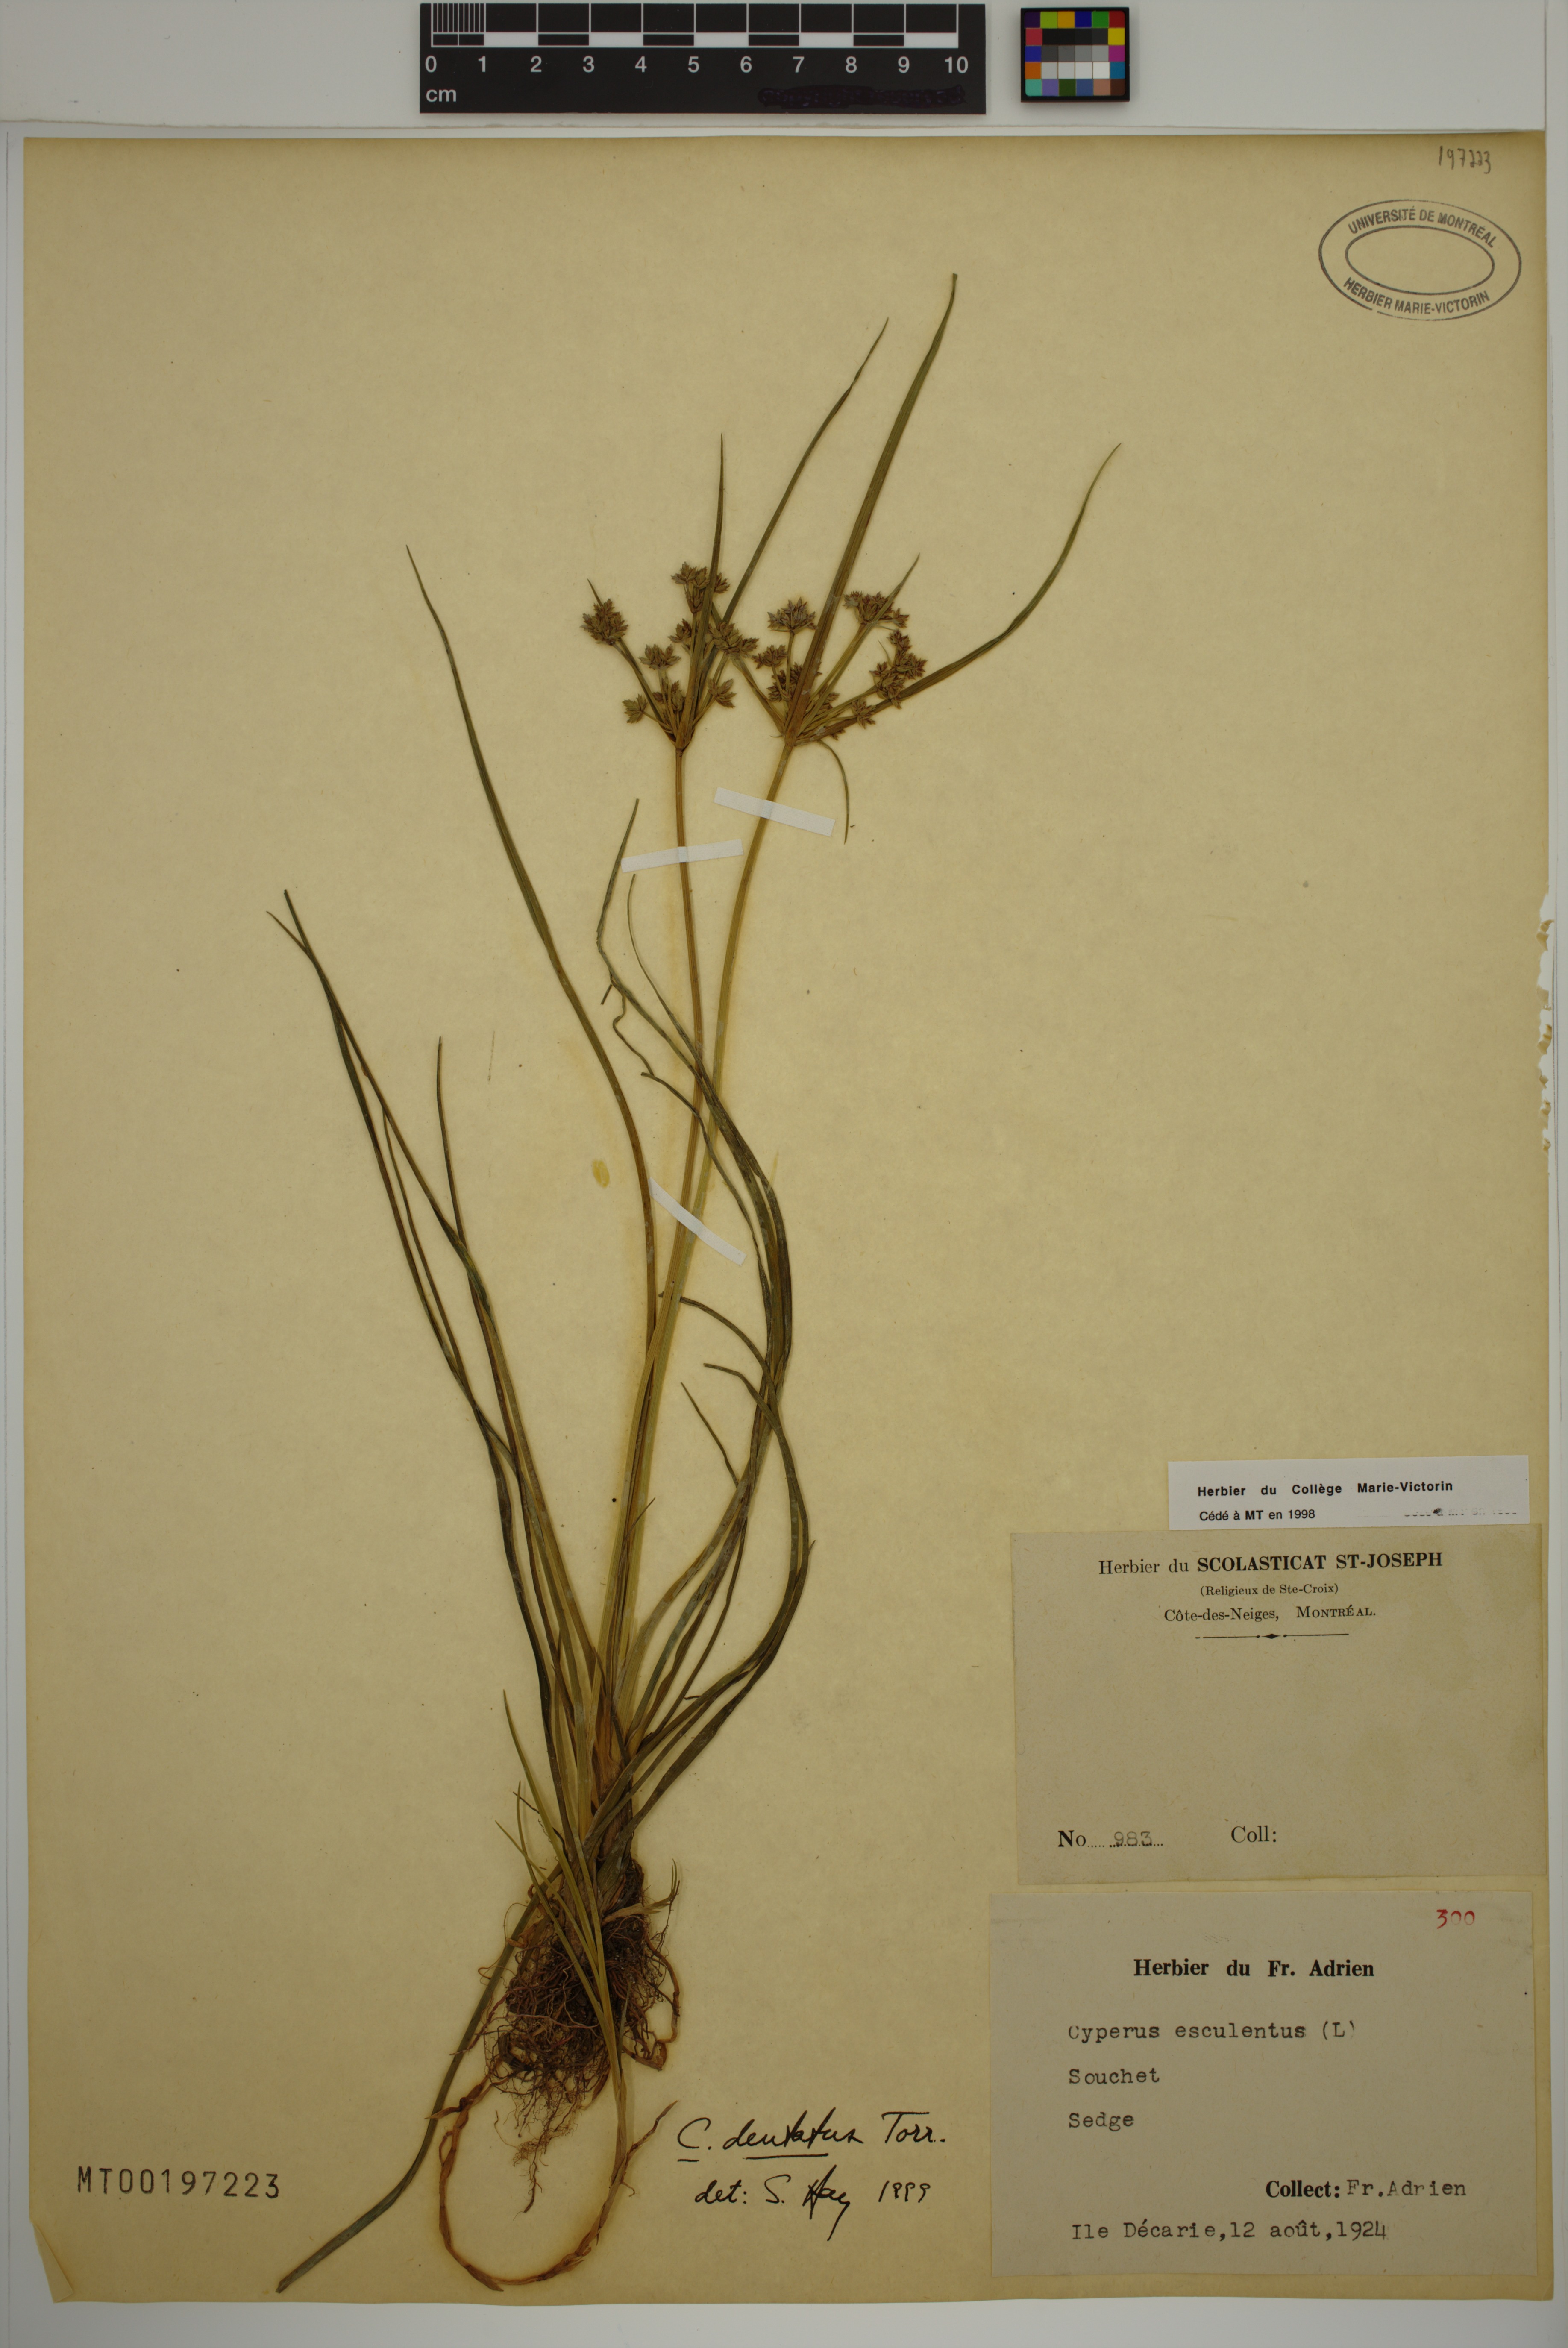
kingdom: Plantae
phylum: Tracheophyta
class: Liliopsida
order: Poales
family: Cyperaceae
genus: Cyperus
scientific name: Cyperus dentatus
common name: Dentate umbrella sedge
